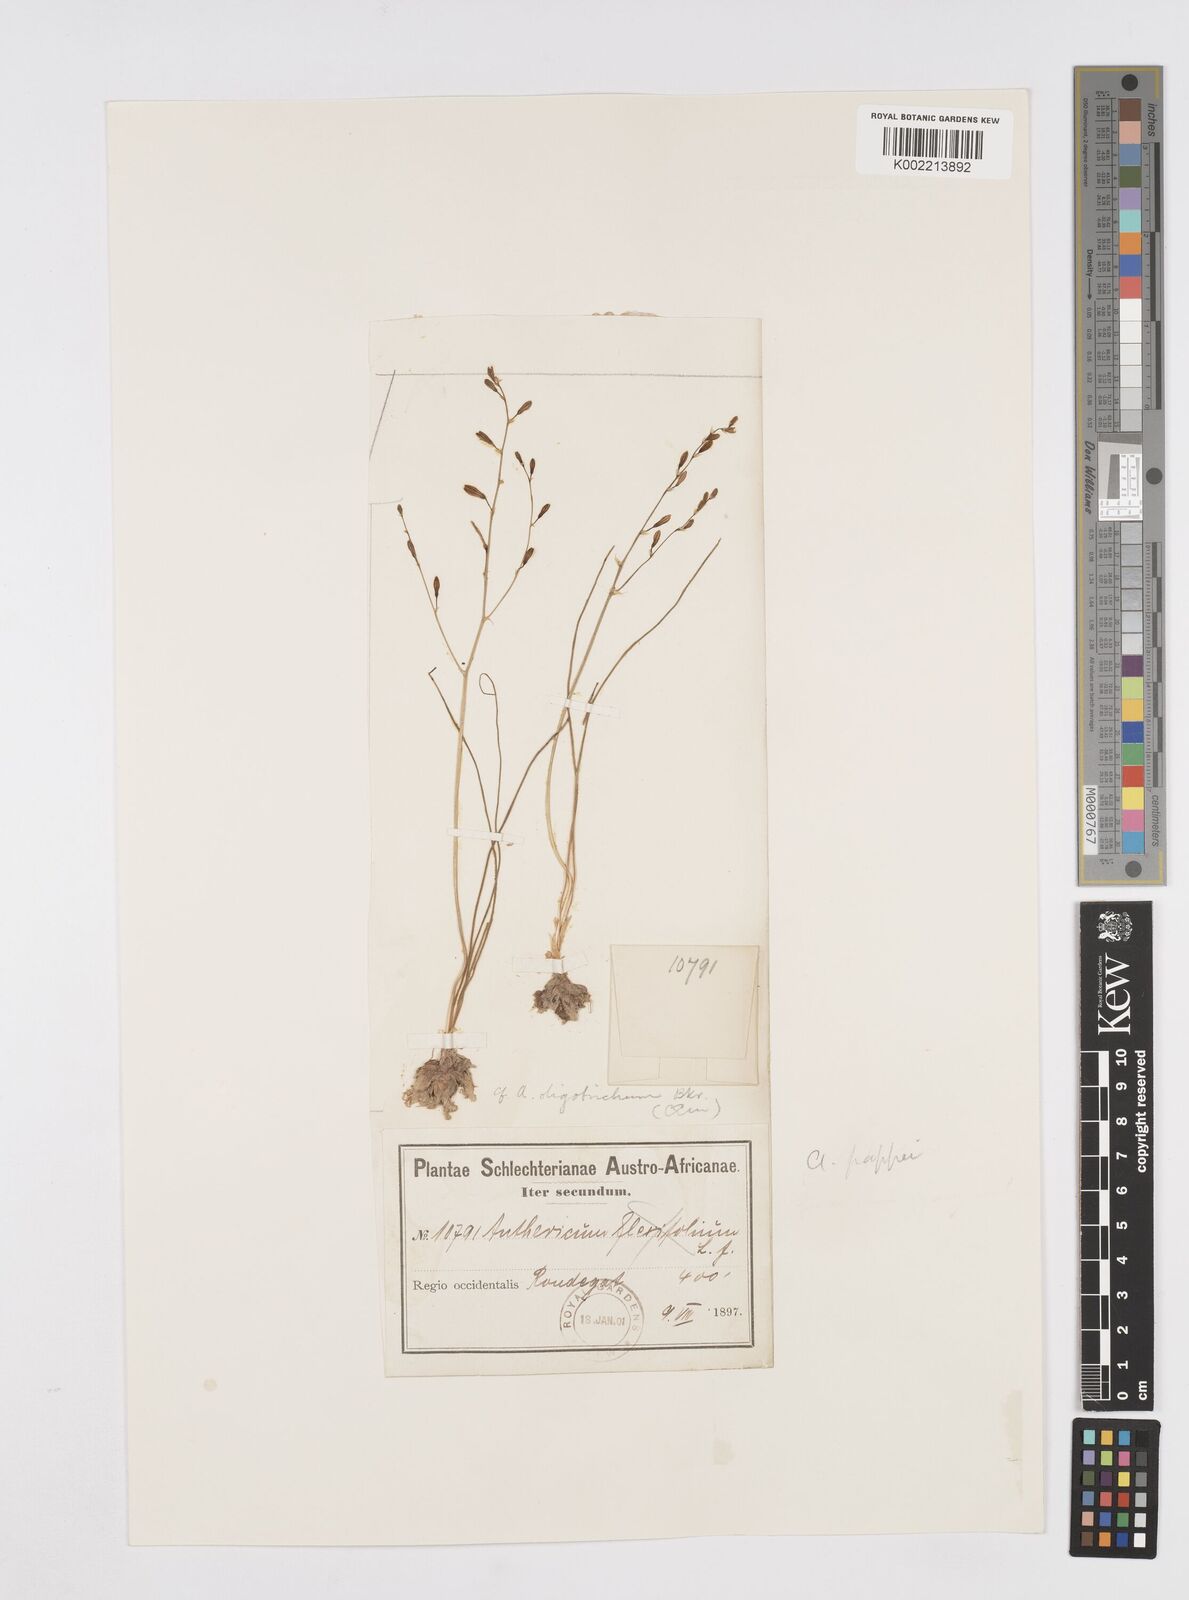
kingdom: Plantae
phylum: Tracheophyta
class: Liliopsida
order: Asparagales
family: Asphodelaceae
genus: Trachyandra
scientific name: Trachyandra flexifolia
